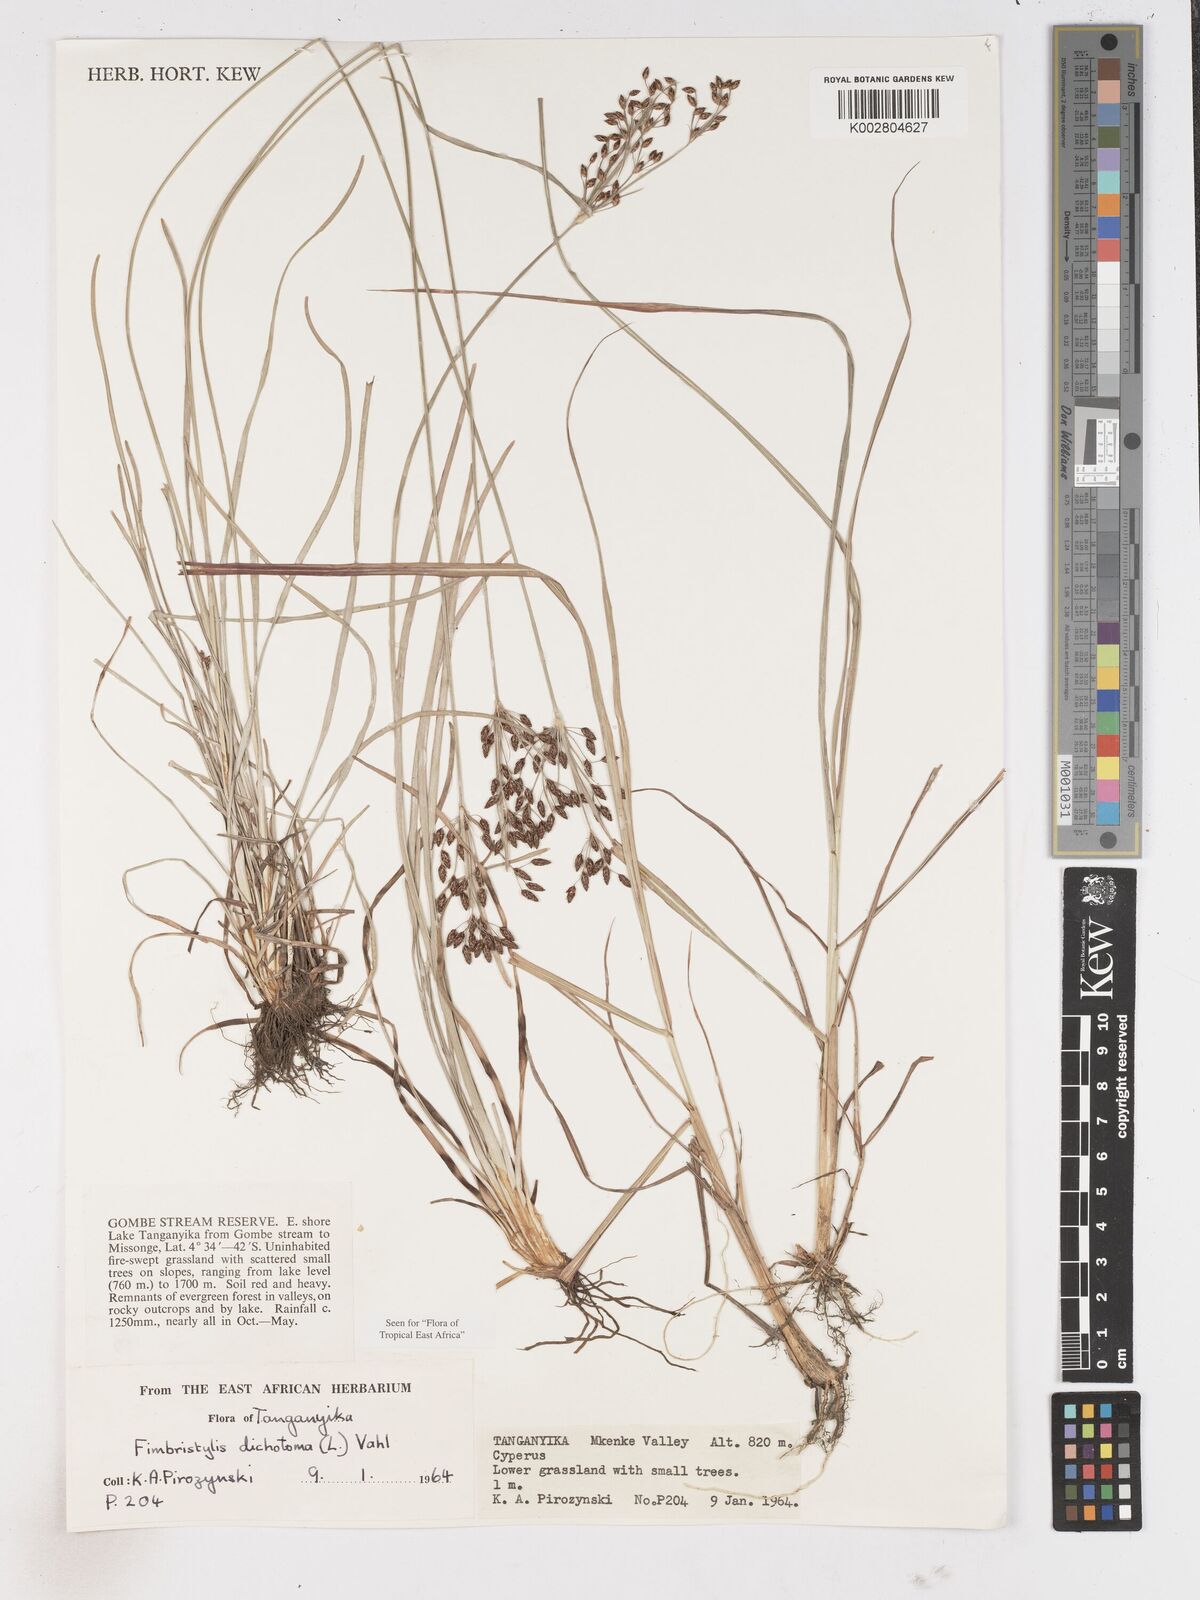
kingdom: Plantae
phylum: Tracheophyta
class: Liliopsida
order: Poales
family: Cyperaceae
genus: Fimbristylis
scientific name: Fimbristylis dichotoma
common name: Forked fimbry
